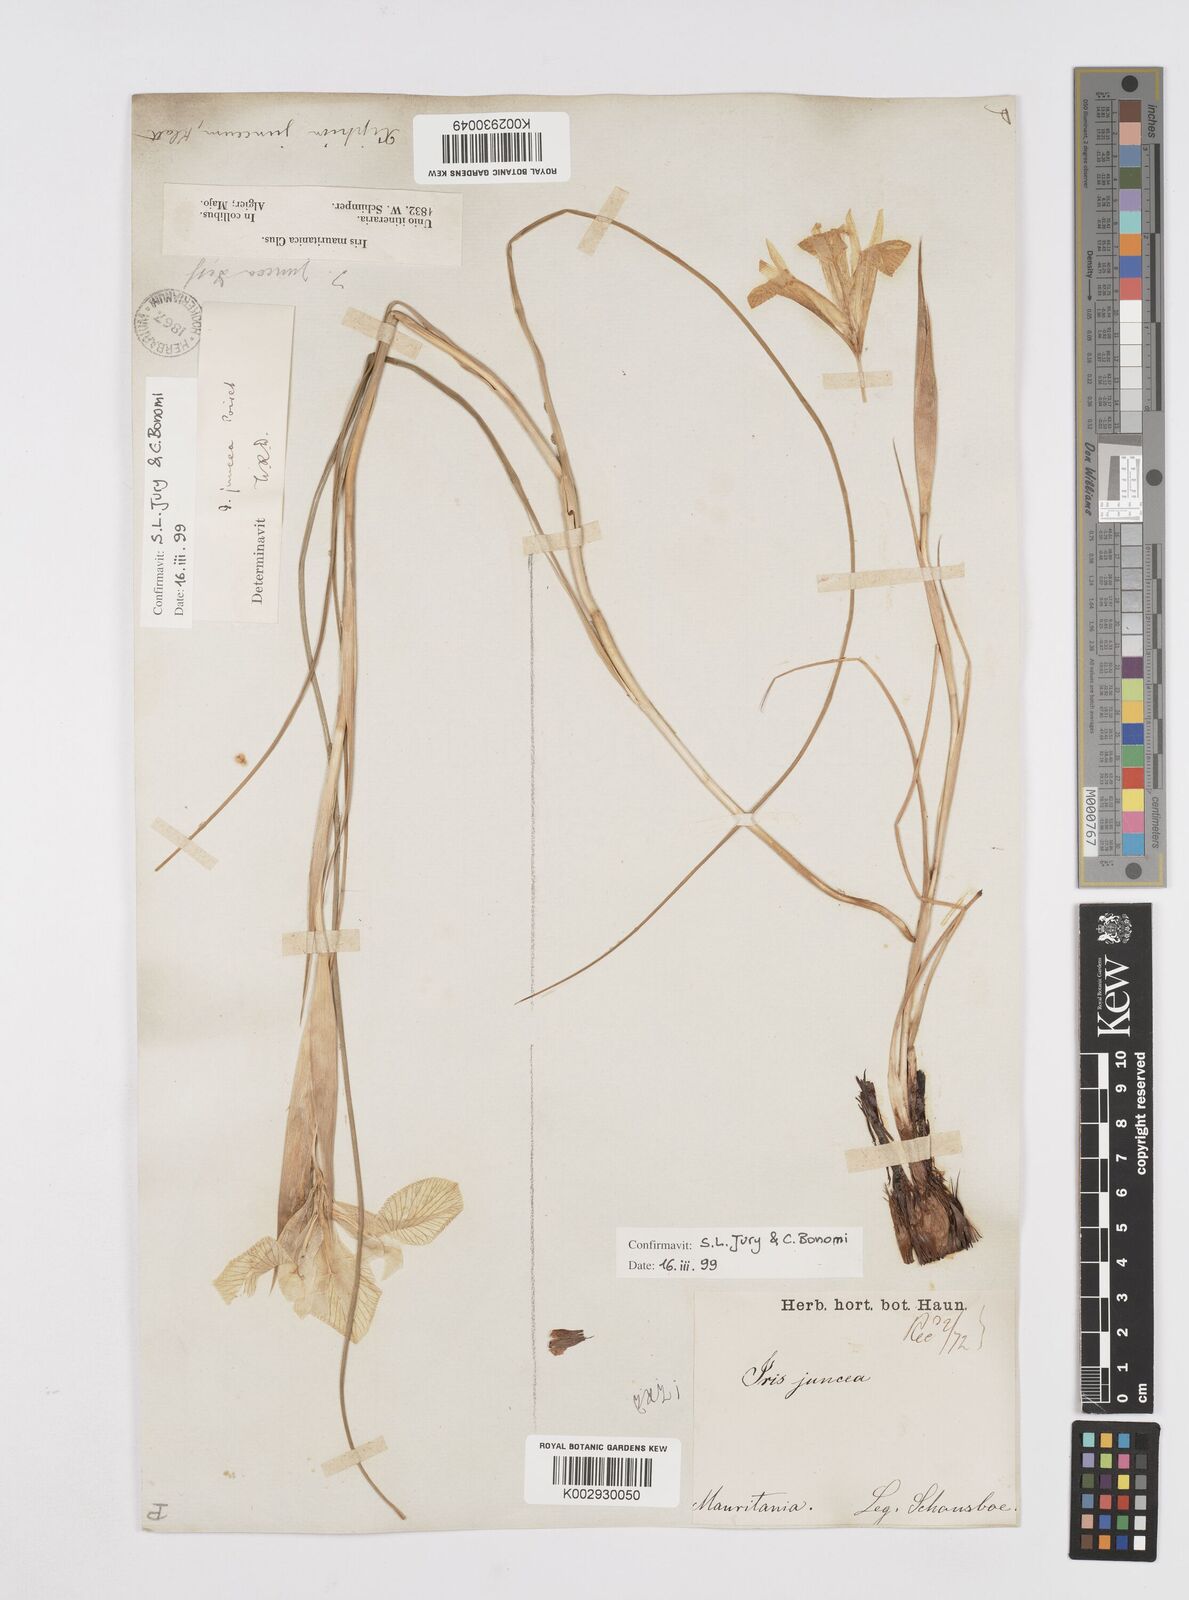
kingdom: Plantae
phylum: Tracheophyta
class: Liliopsida
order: Asparagales
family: Iridaceae
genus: Iris
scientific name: Iris juncea
